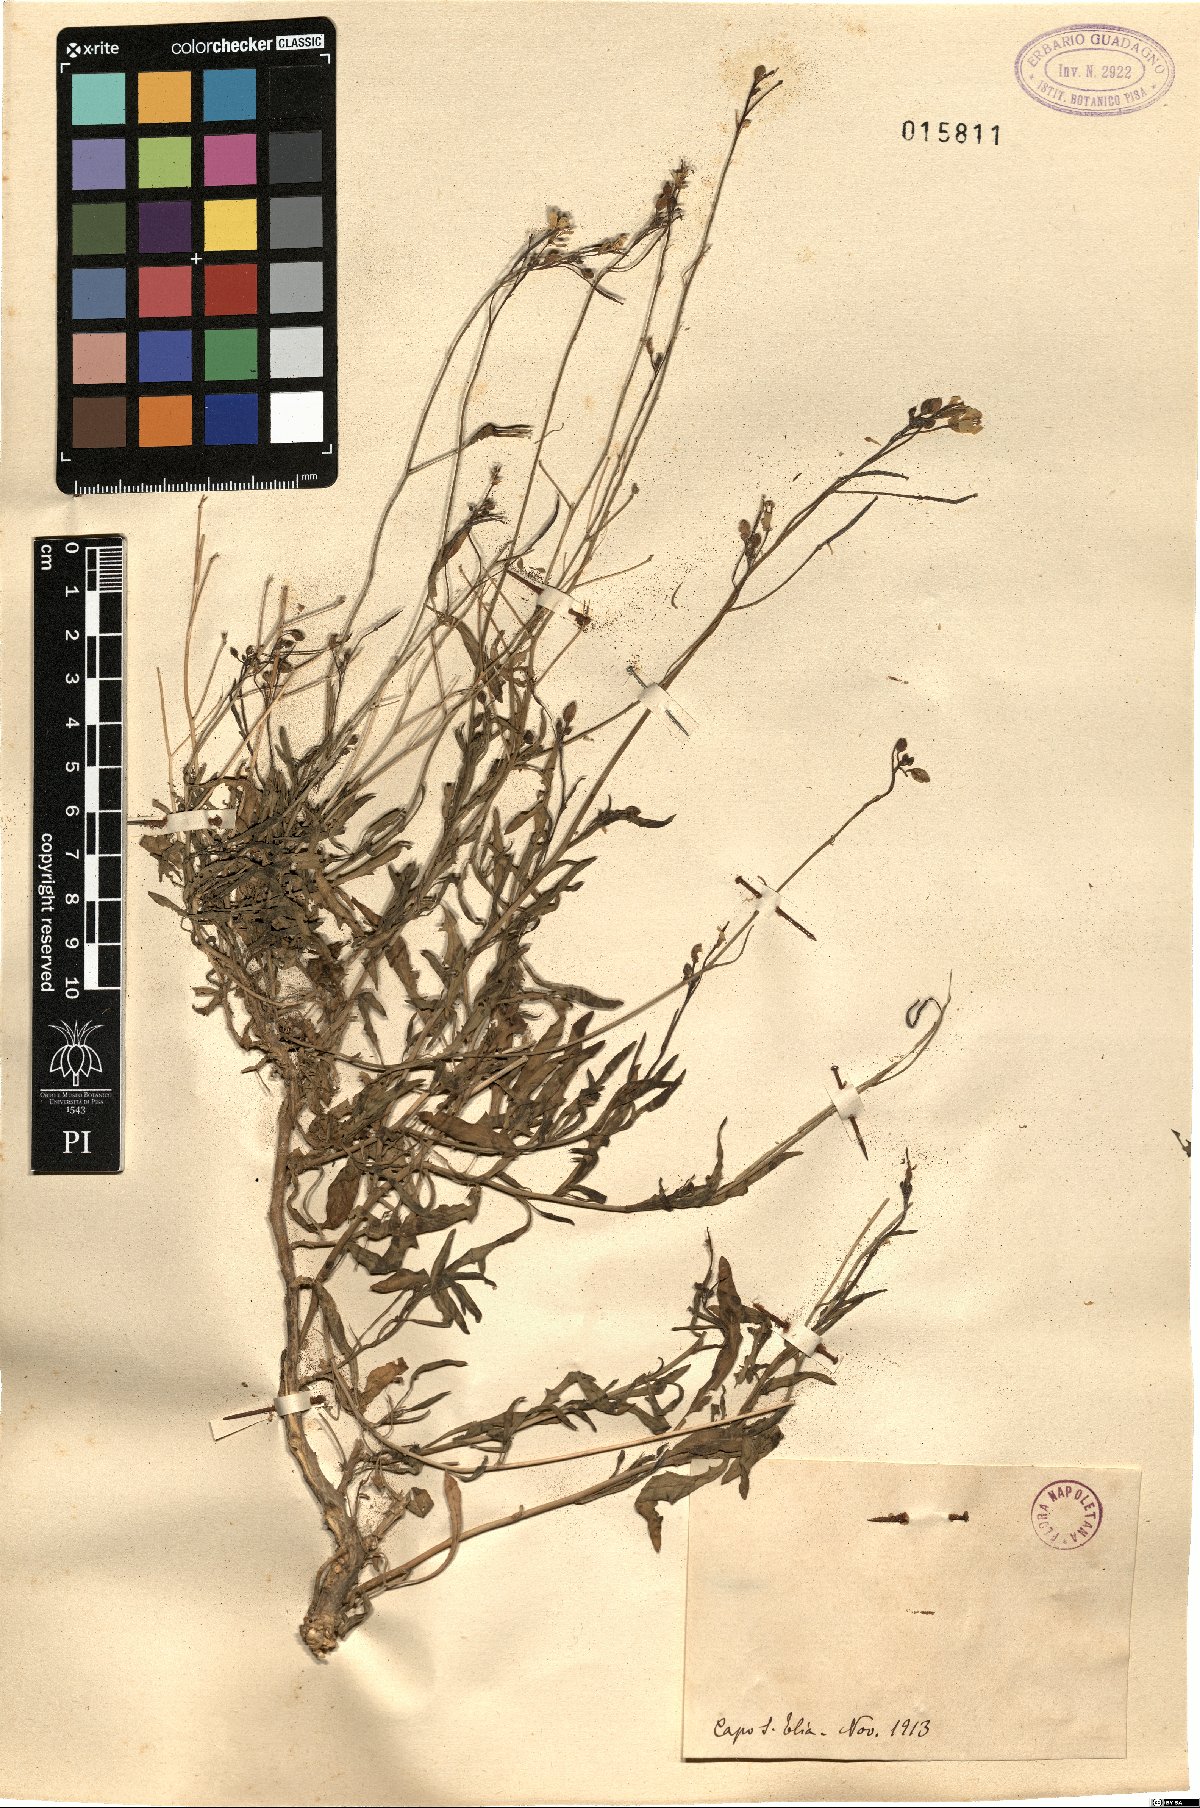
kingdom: Plantae
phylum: Tracheophyta
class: Magnoliopsida
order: Brassicales
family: Brassicaceae
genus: Diplotaxis
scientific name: Diplotaxis
